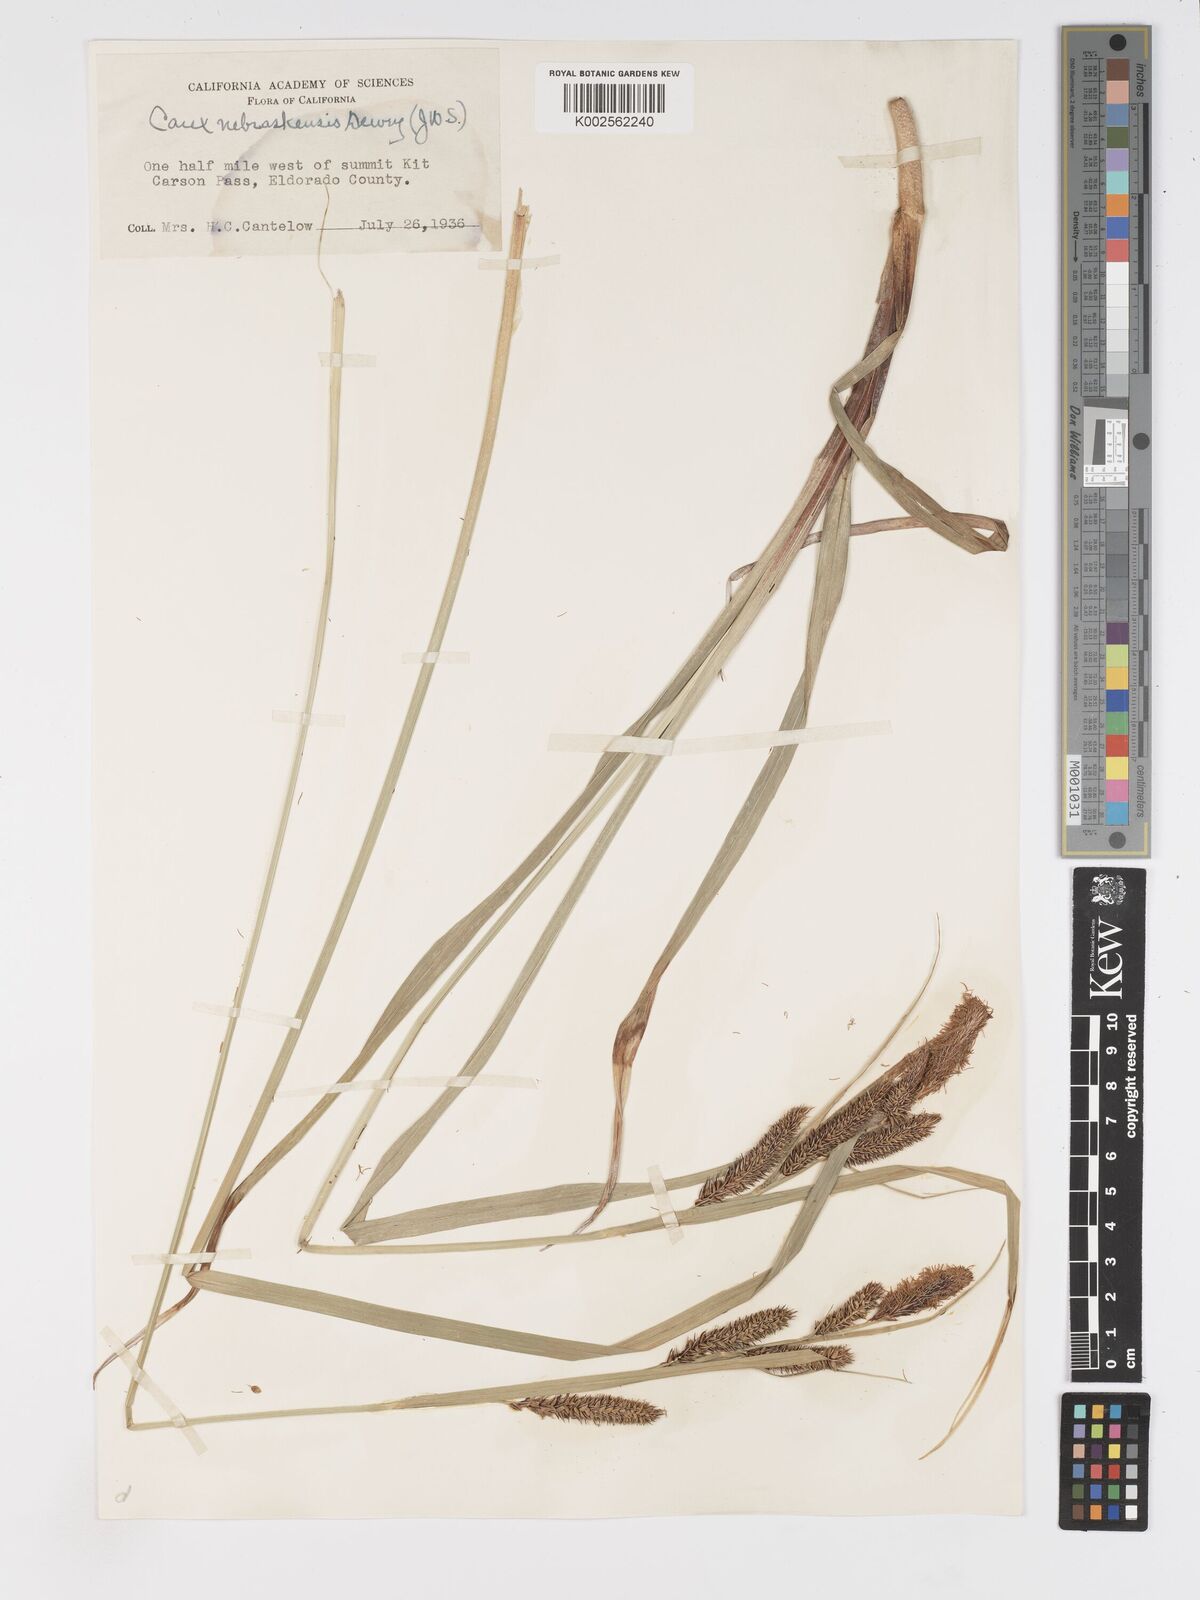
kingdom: Plantae
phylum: Tracheophyta
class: Liliopsida
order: Poales
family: Cyperaceae
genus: Carex
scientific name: Carex nebrascensis
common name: Nebraska sedge
